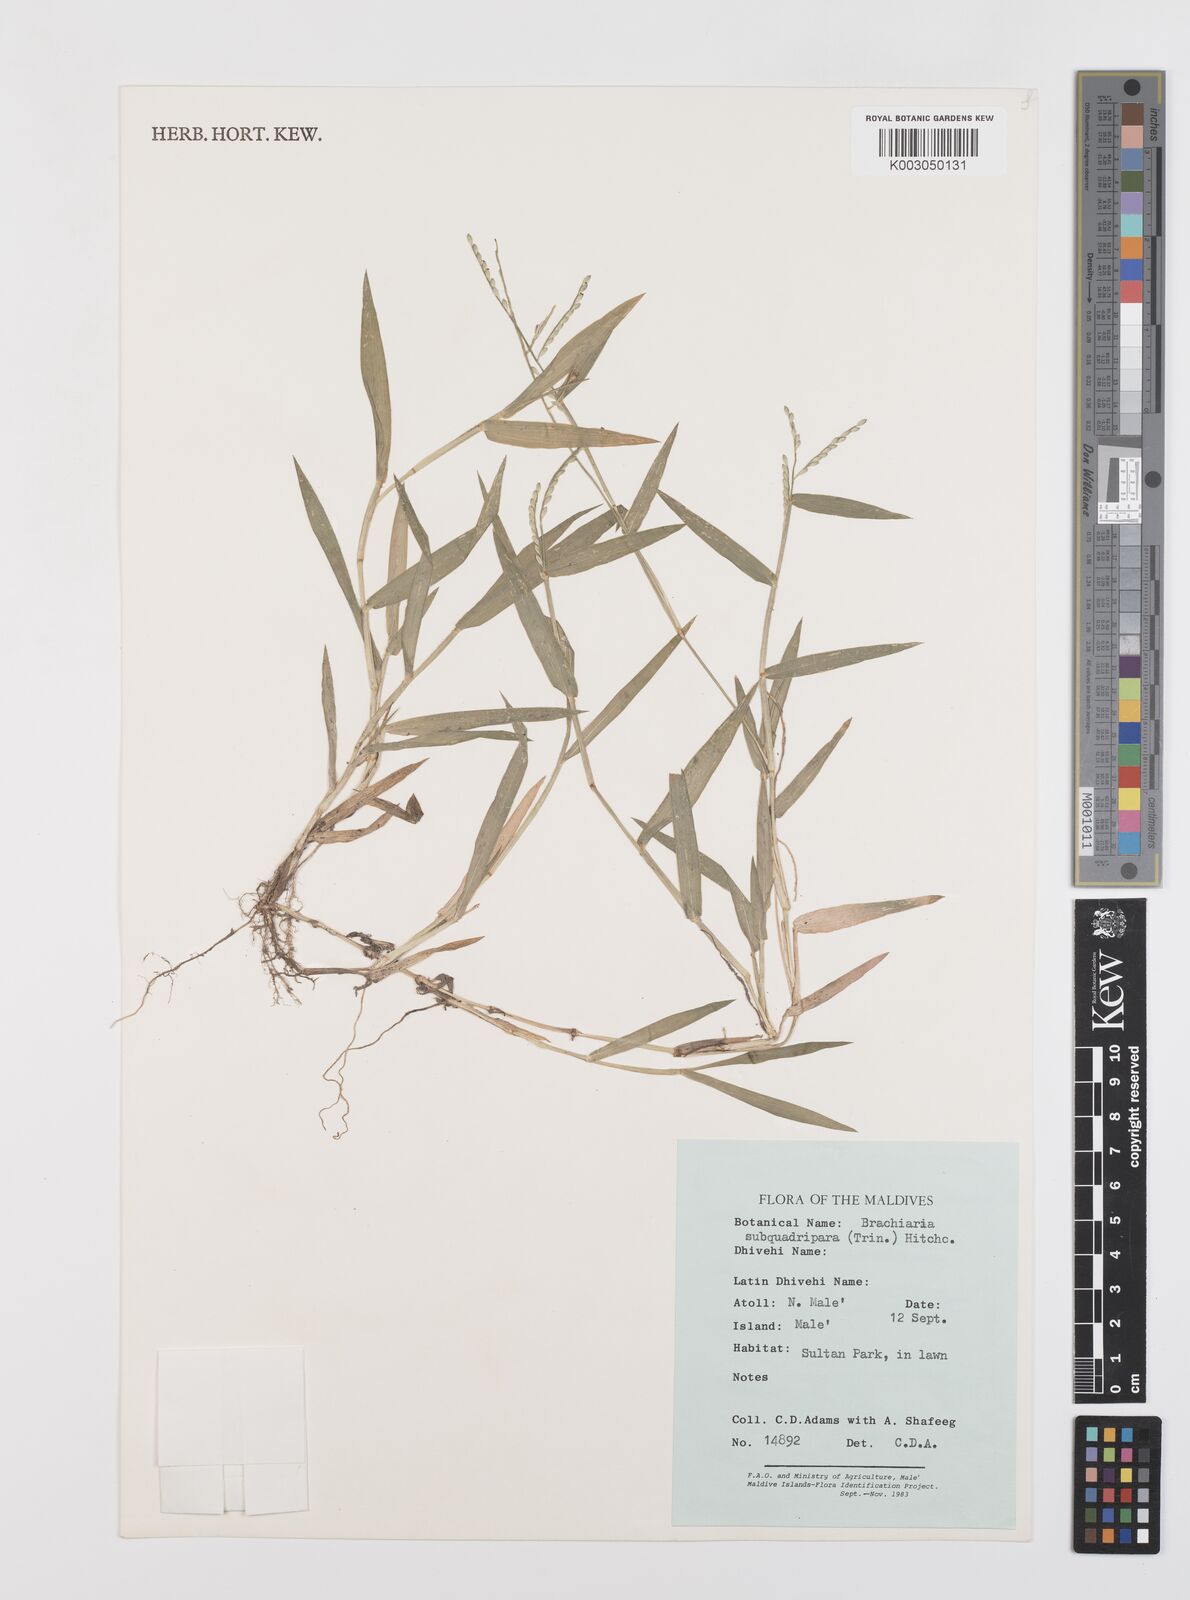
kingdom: Plantae
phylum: Tracheophyta
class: Liliopsida
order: Poales
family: Poaceae
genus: Urochloa
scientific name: Urochloa subquadripara
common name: Armgrass millet
